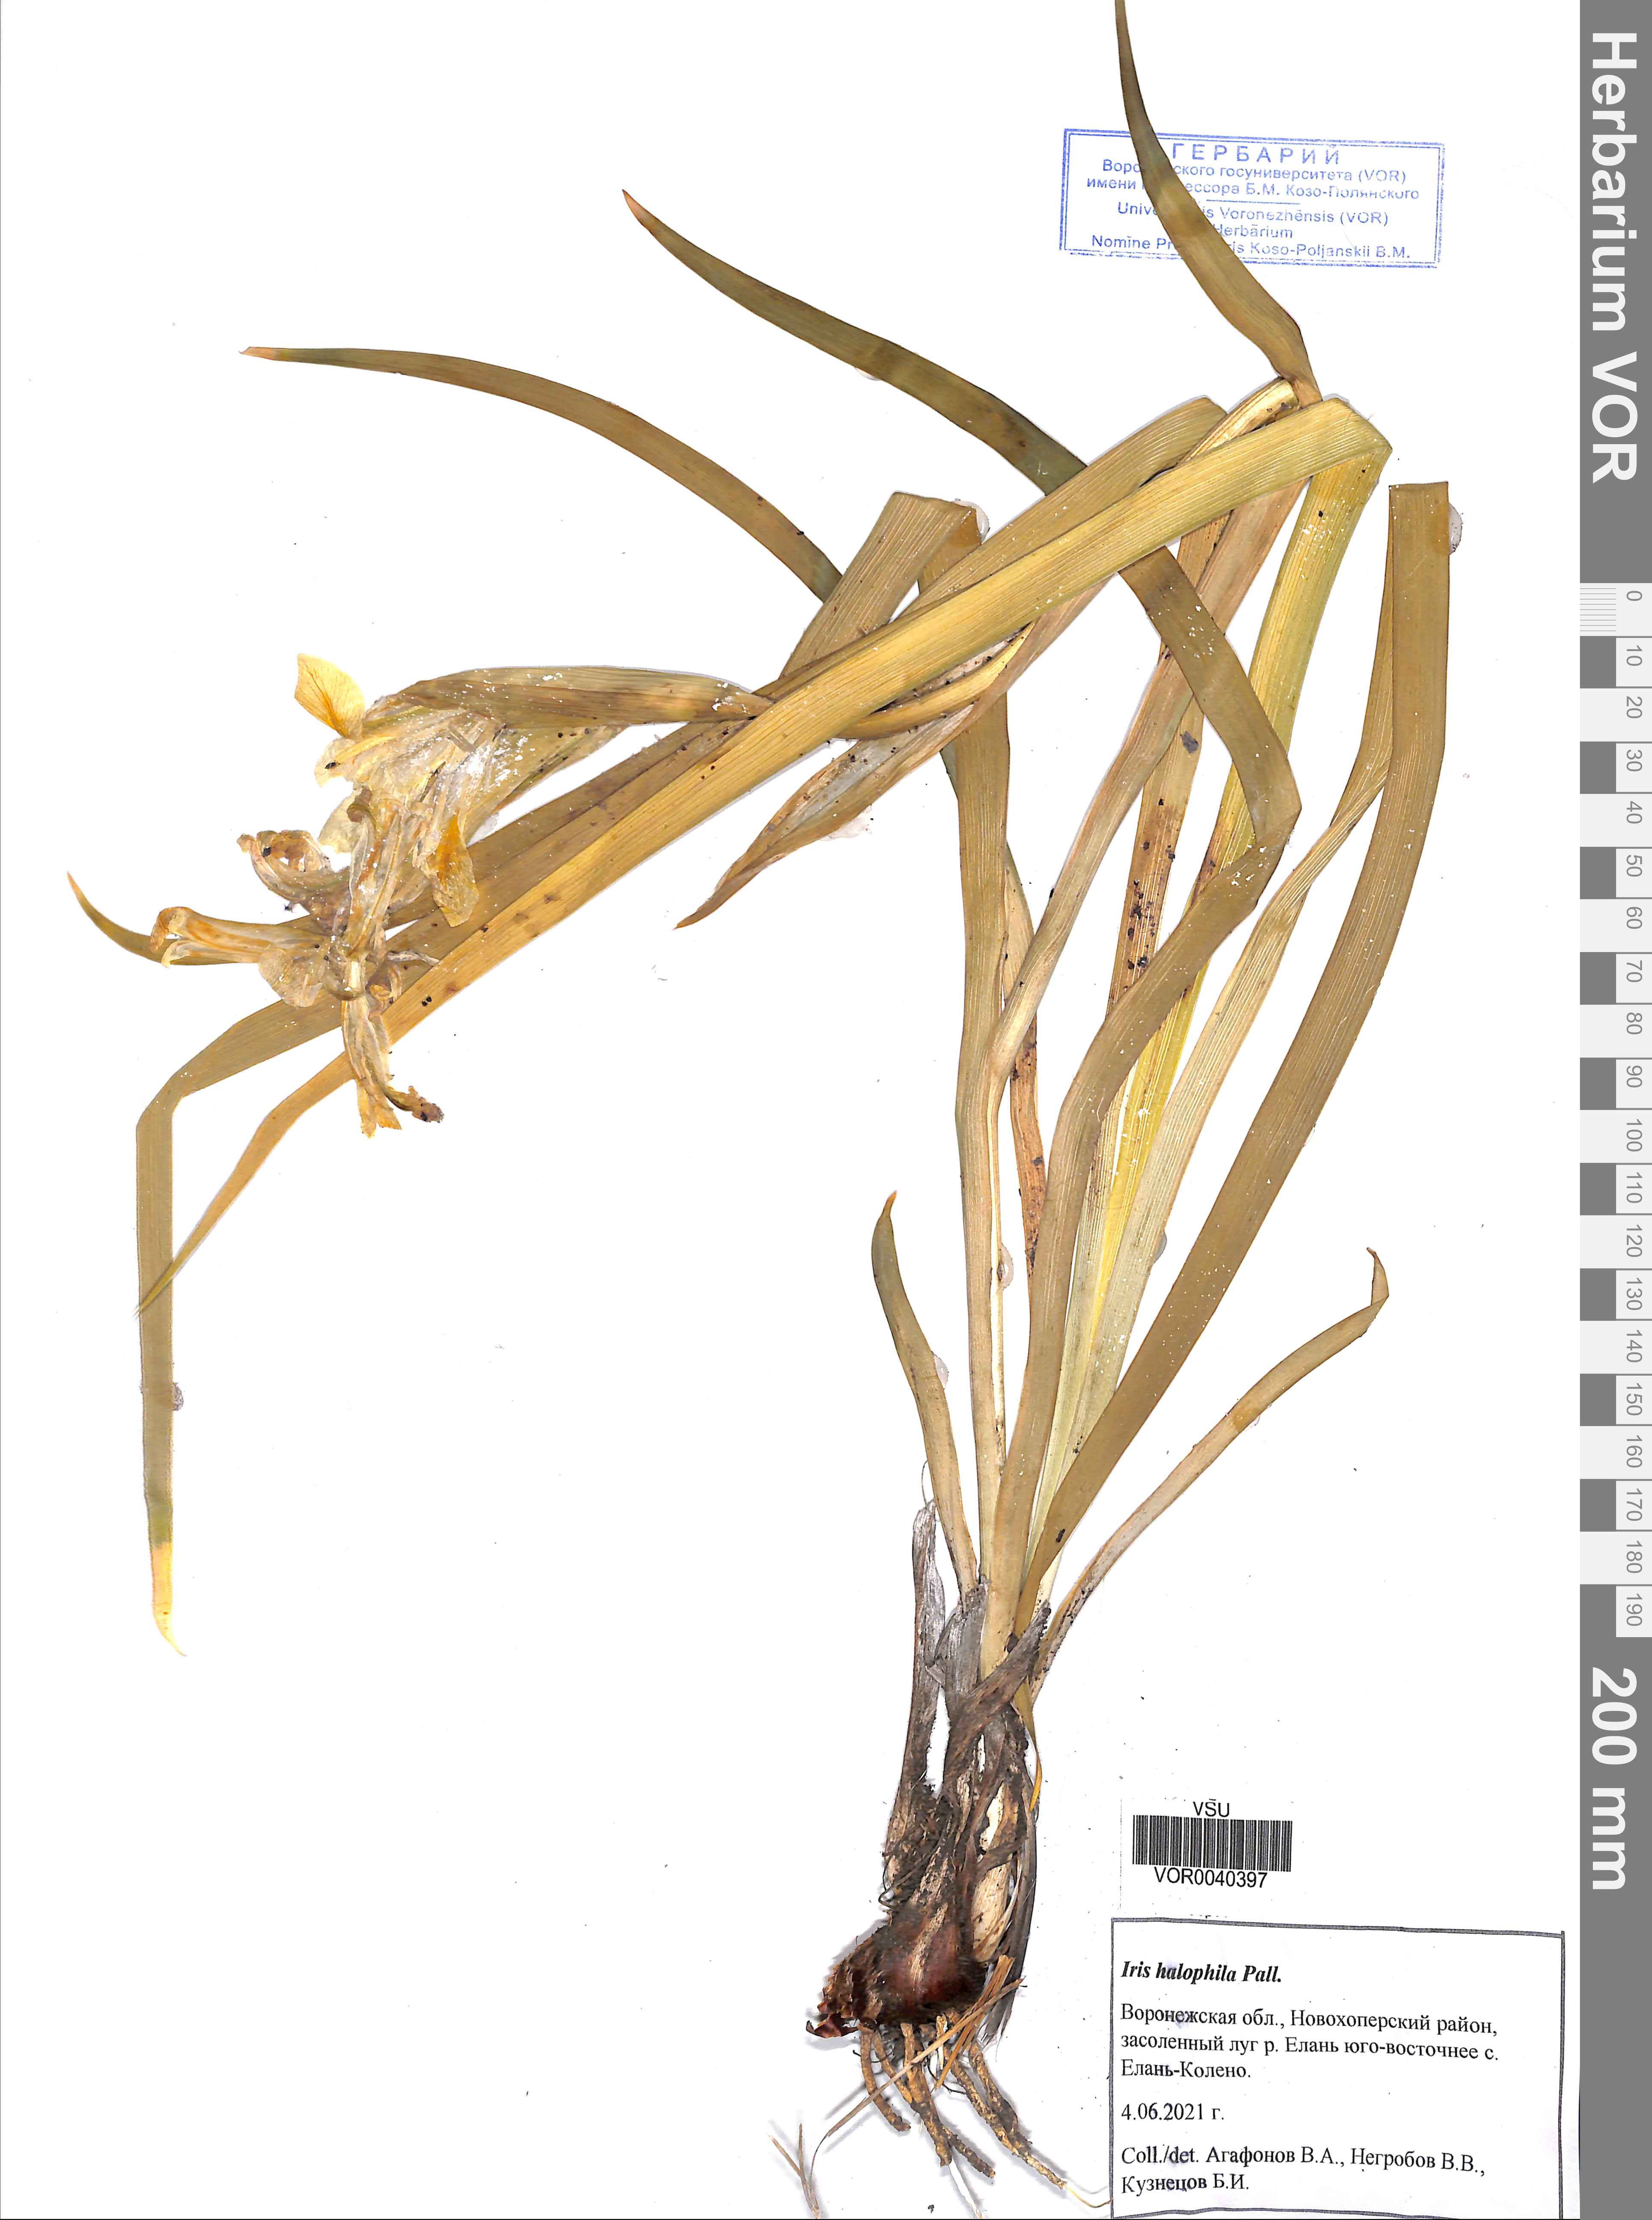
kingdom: Plantae
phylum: Tracheophyta
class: Liliopsida
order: Asparagales
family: Iridaceae
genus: Iris
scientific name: Iris halophila
